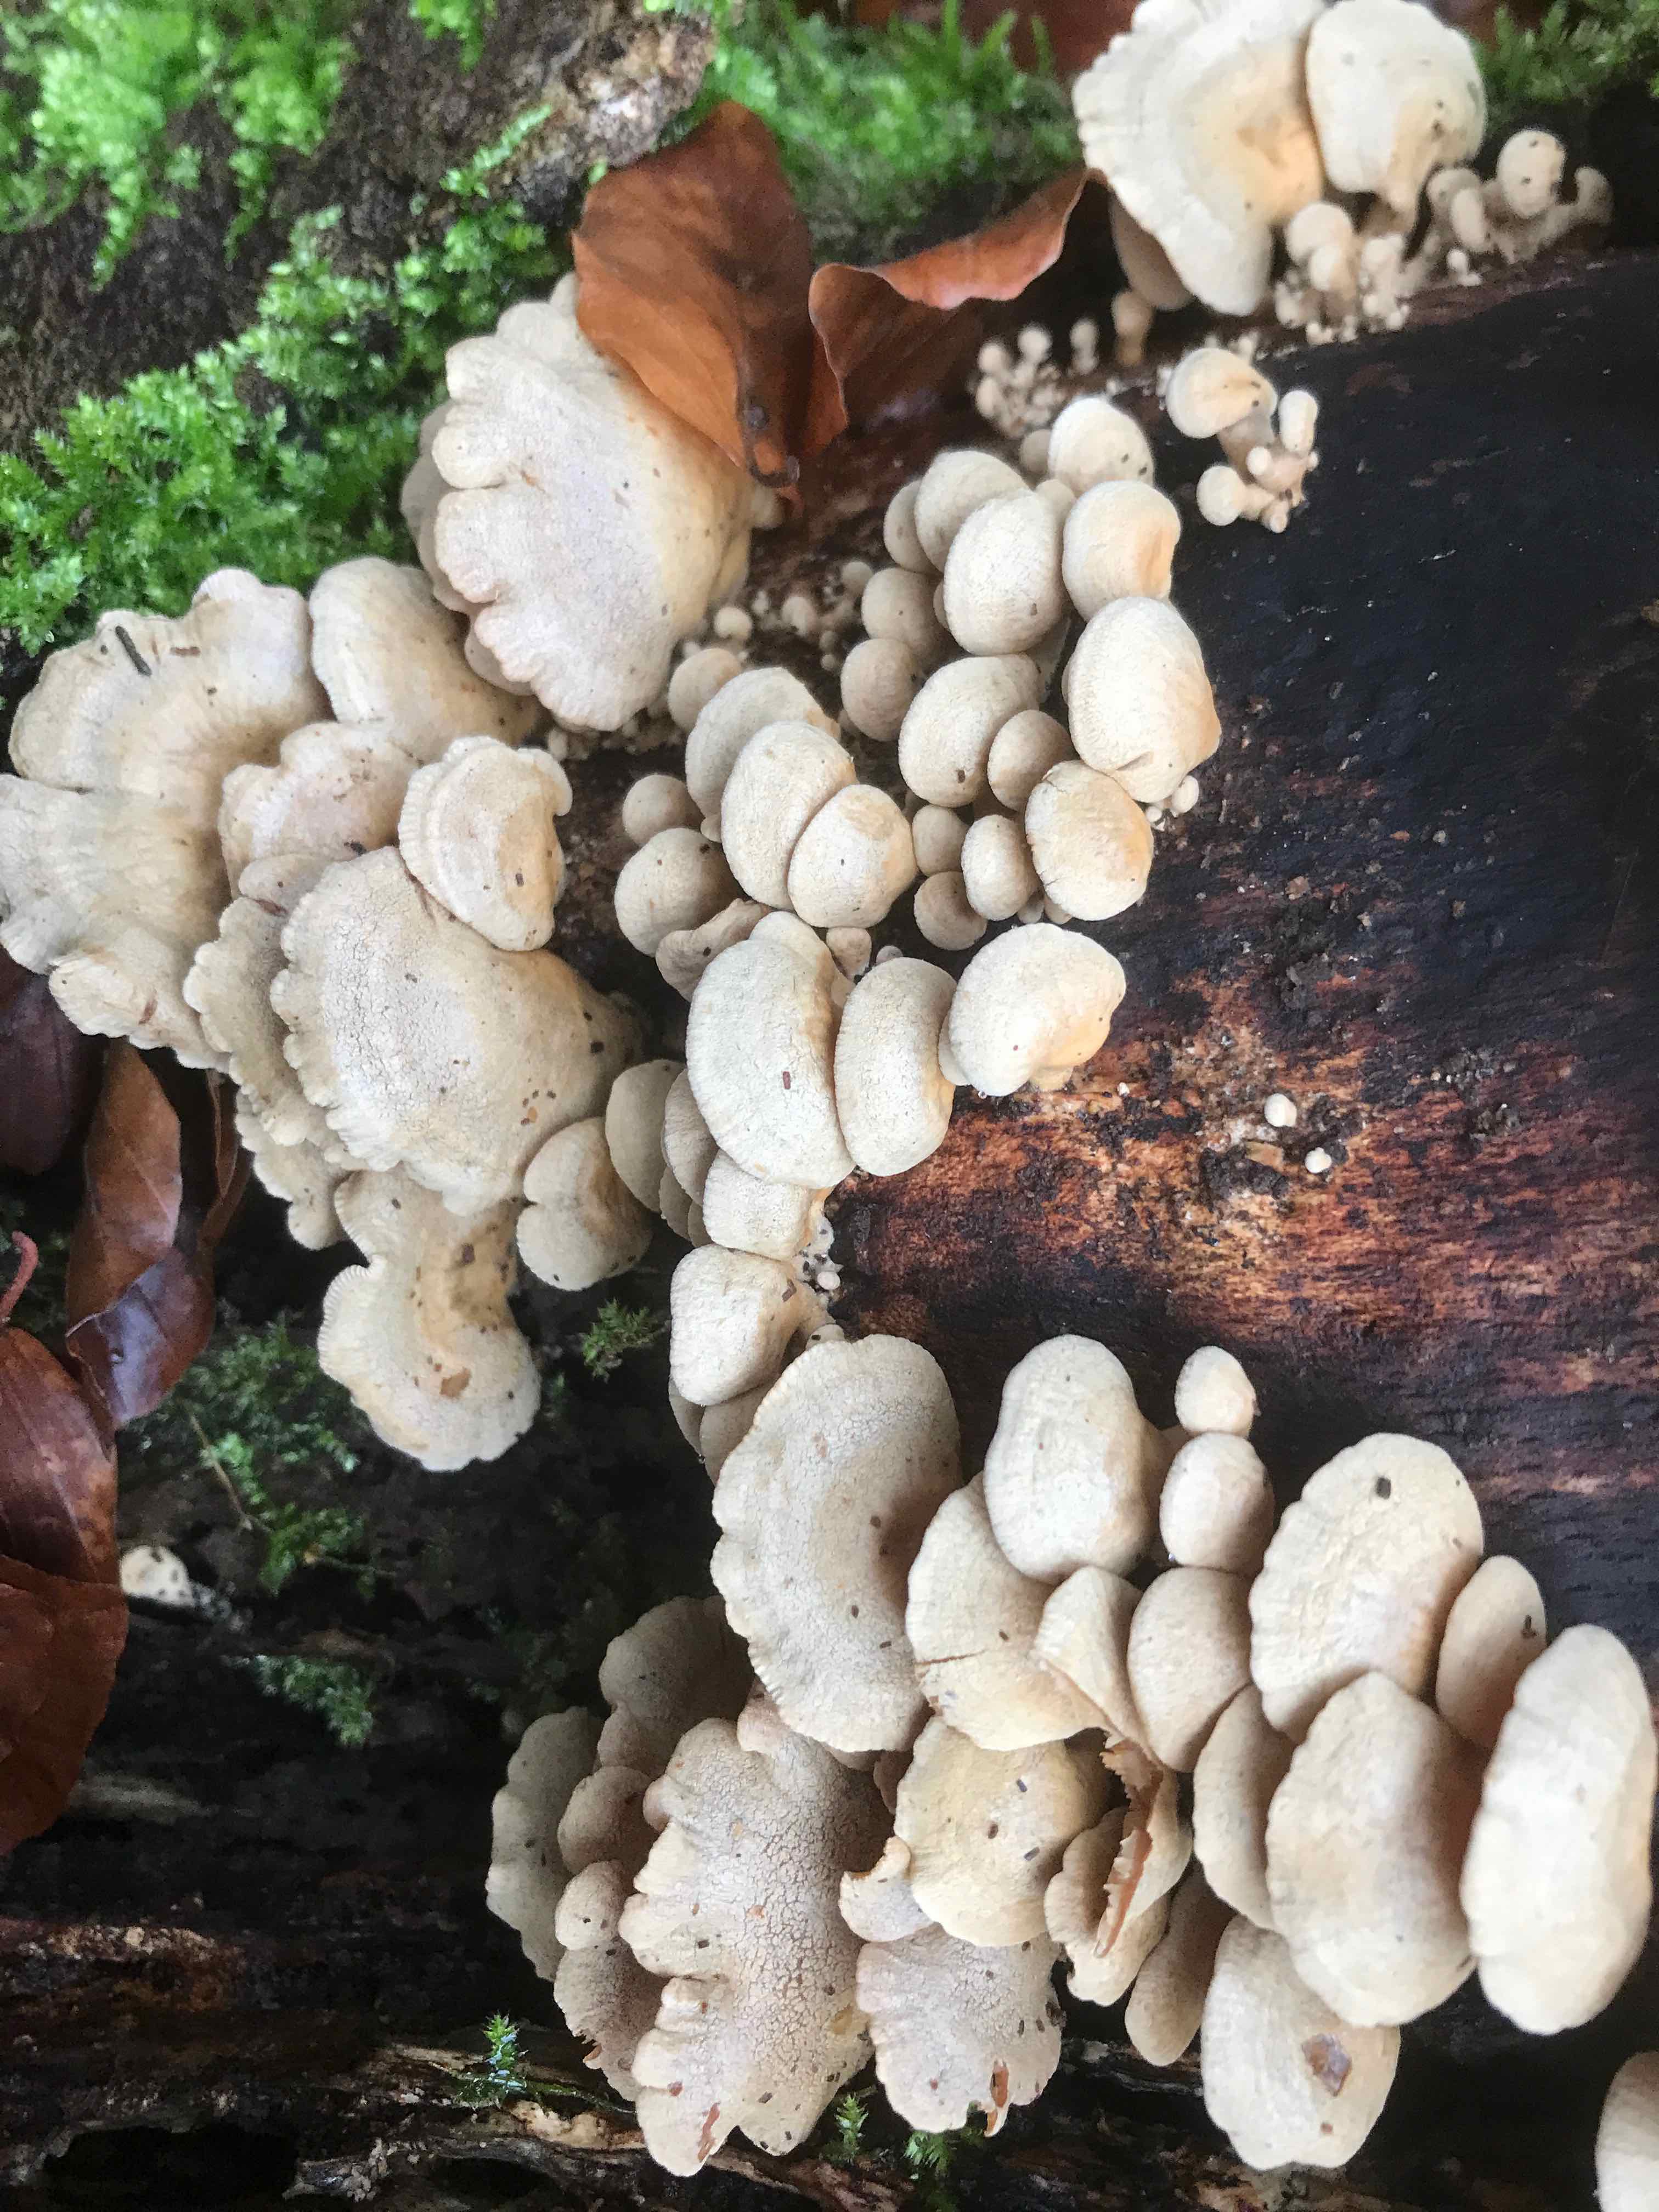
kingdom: Fungi
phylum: Basidiomycota
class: Agaricomycetes
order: Agaricales
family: Mycenaceae
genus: Panellus
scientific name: Panellus stipticus
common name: kliddet epaulethat
